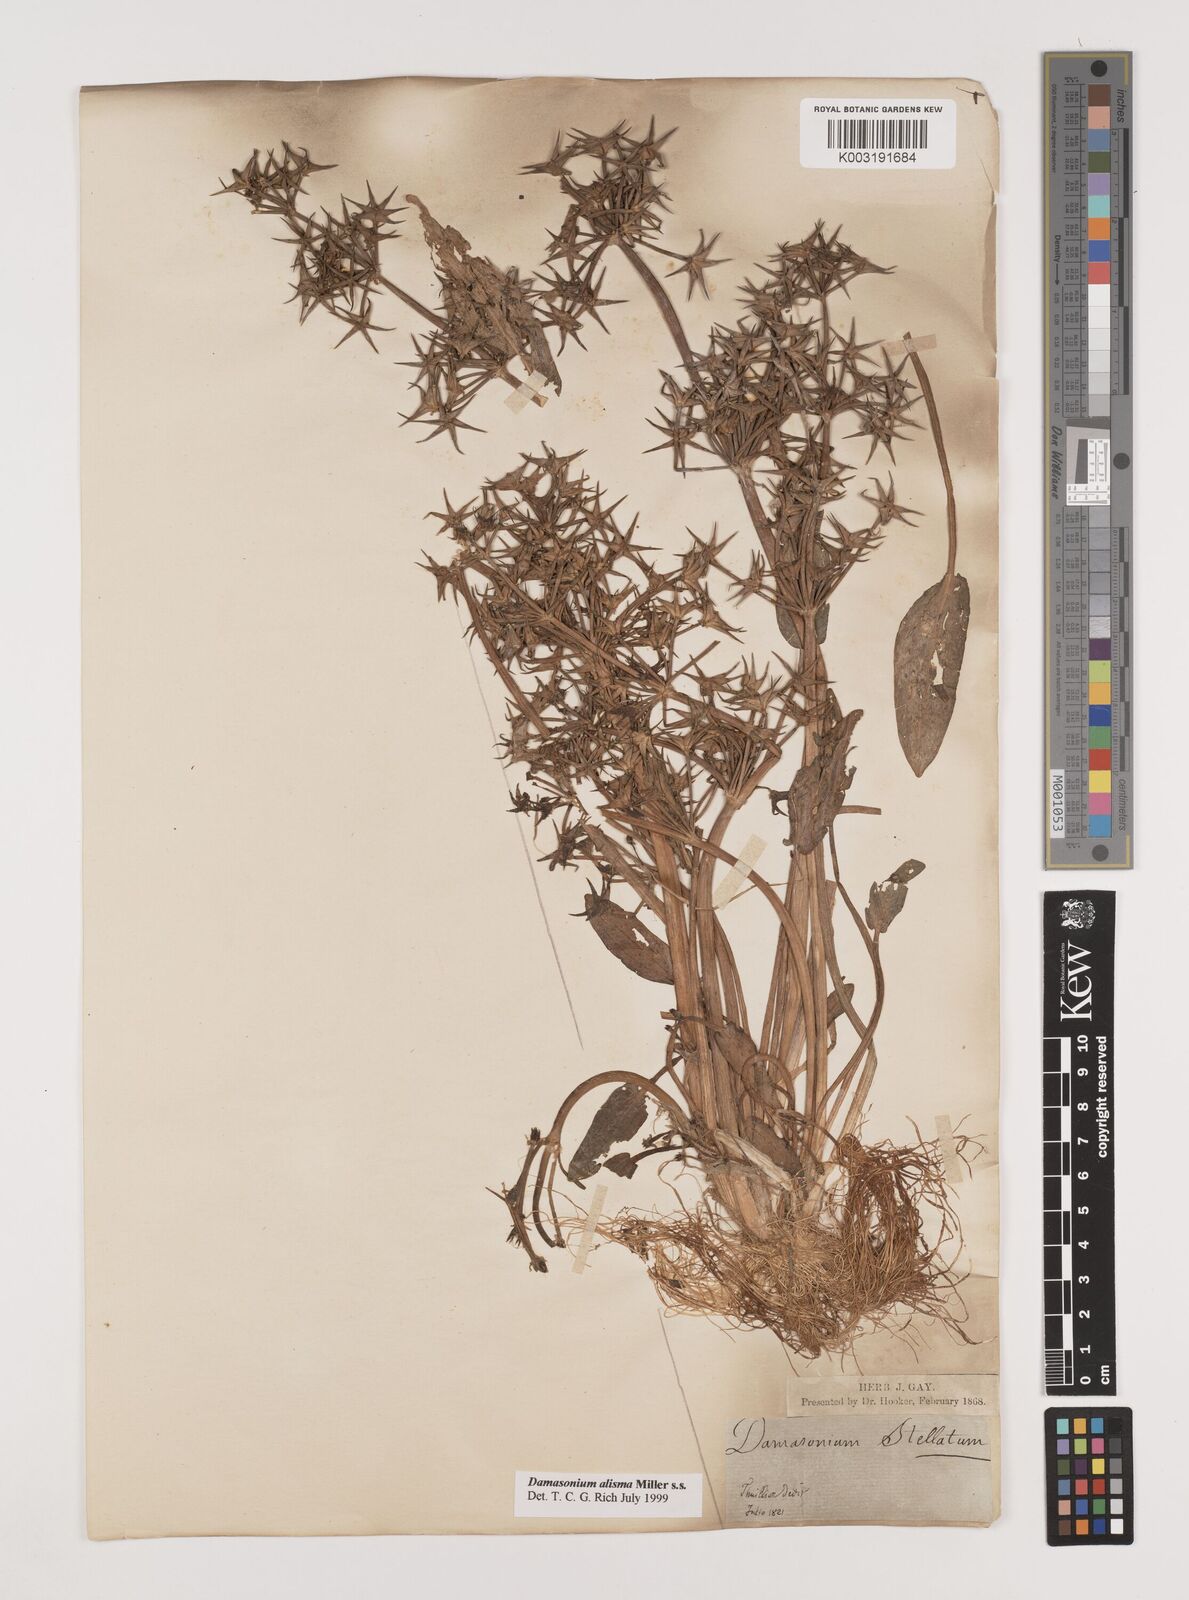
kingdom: Plantae
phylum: Tracheophyta
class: Liliopsida
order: Alismatales
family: Alismataceae
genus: Damasonium
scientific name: Damasonium alisma
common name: Starfruit
